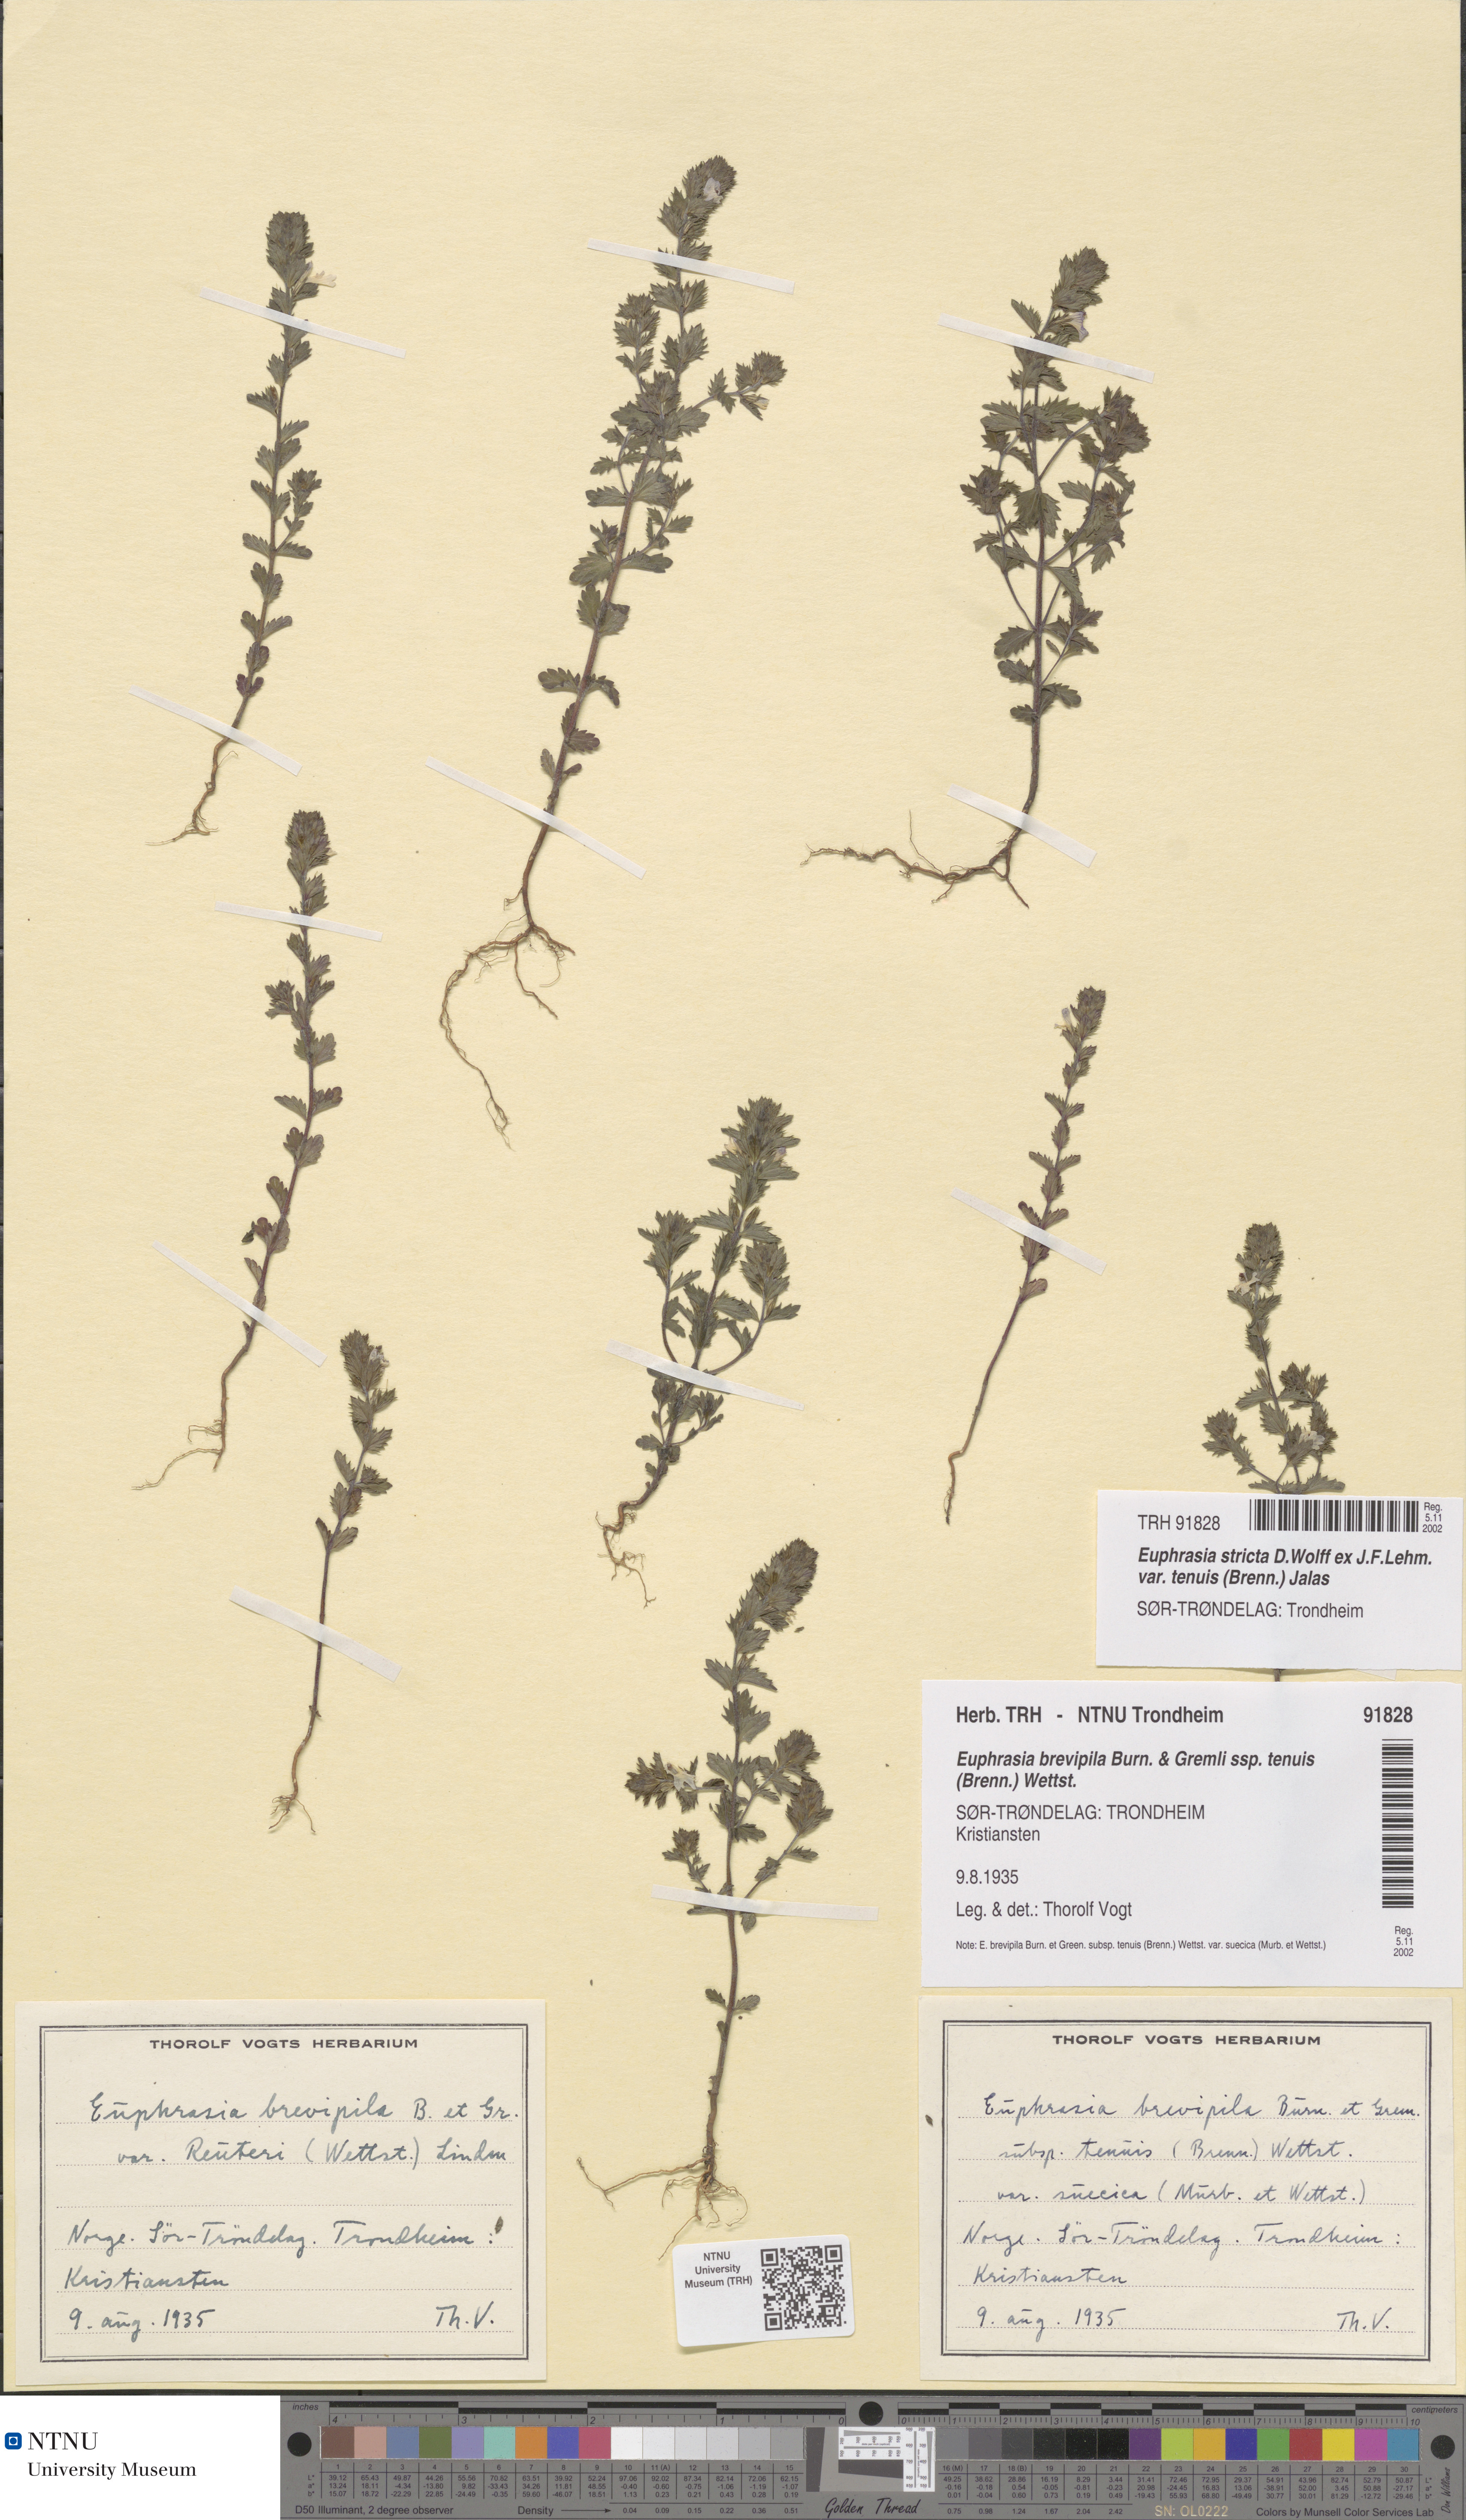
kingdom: Plantae
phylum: Tracheophyta
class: Magnoliopsida
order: Lamiales
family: Orobanchaceae
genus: Euphrasia
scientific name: Euphrasia vernalis
